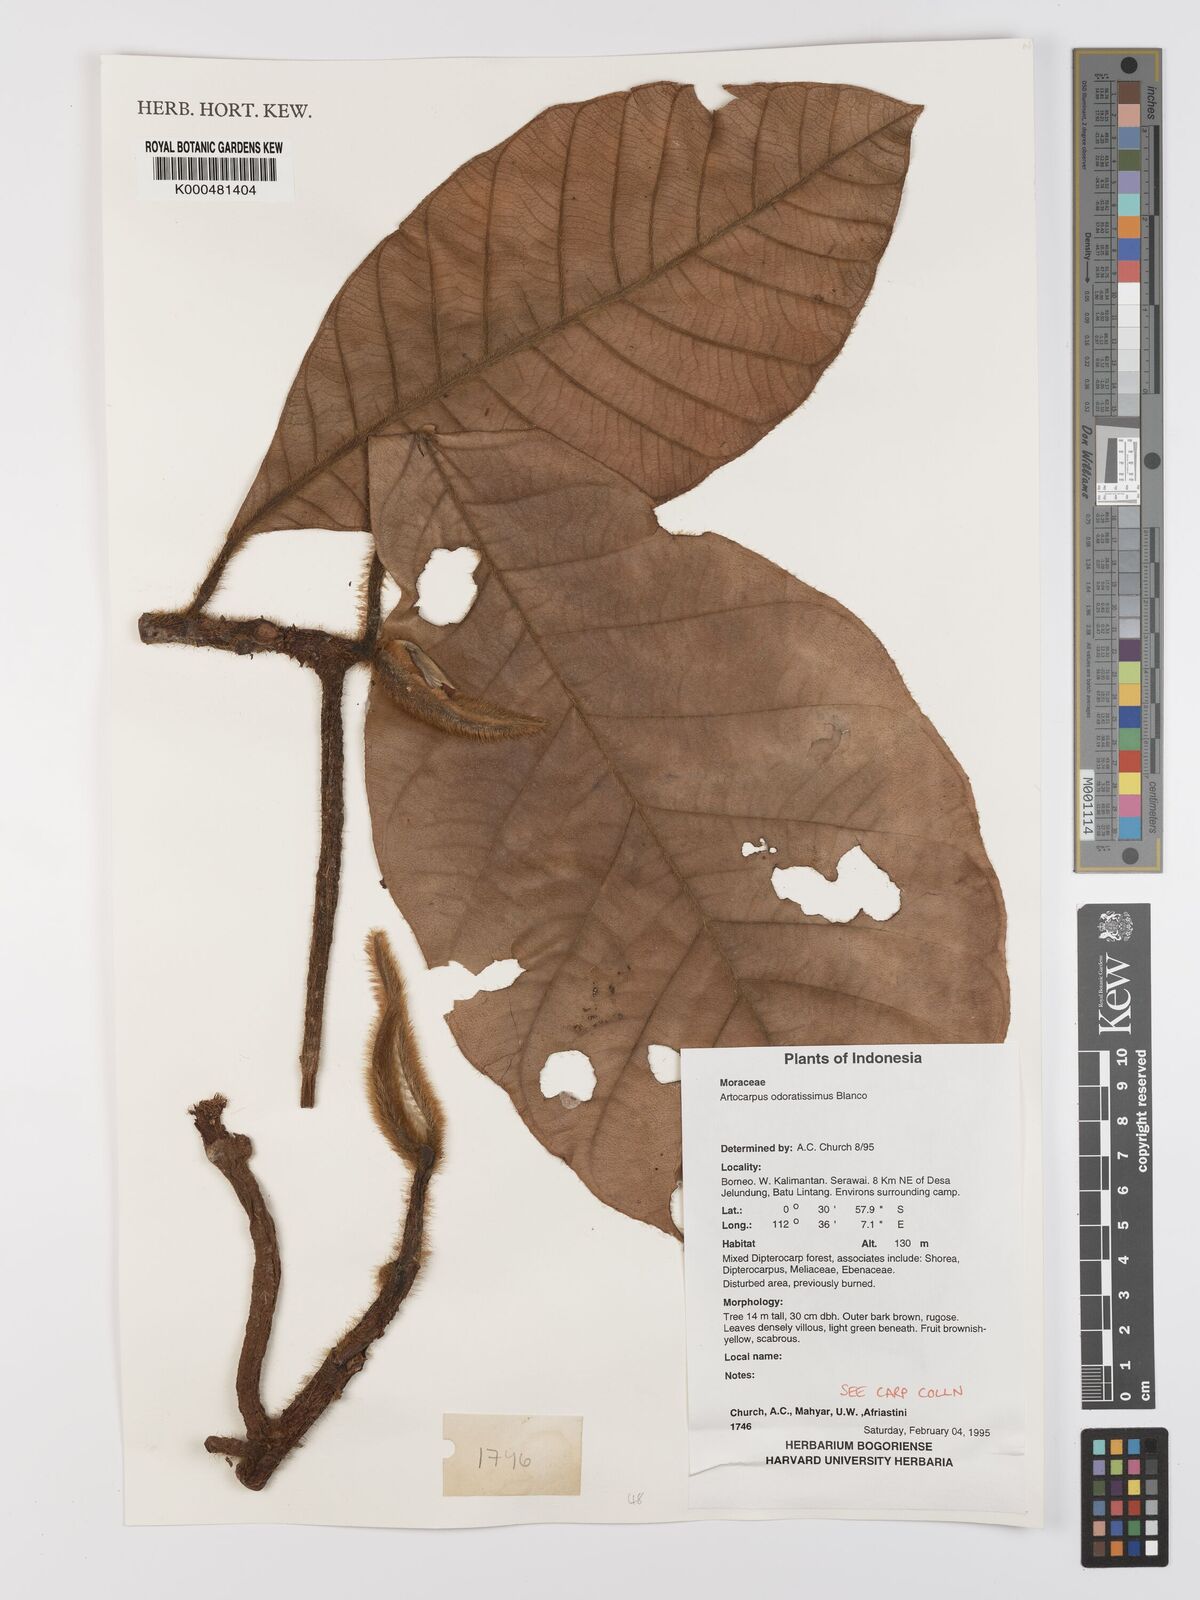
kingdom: Plantae
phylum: Tracheophyta
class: Magnoliopsida
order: Rosales
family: Moraceae
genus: Artocarpus
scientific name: Artocarpus odoratissimus
